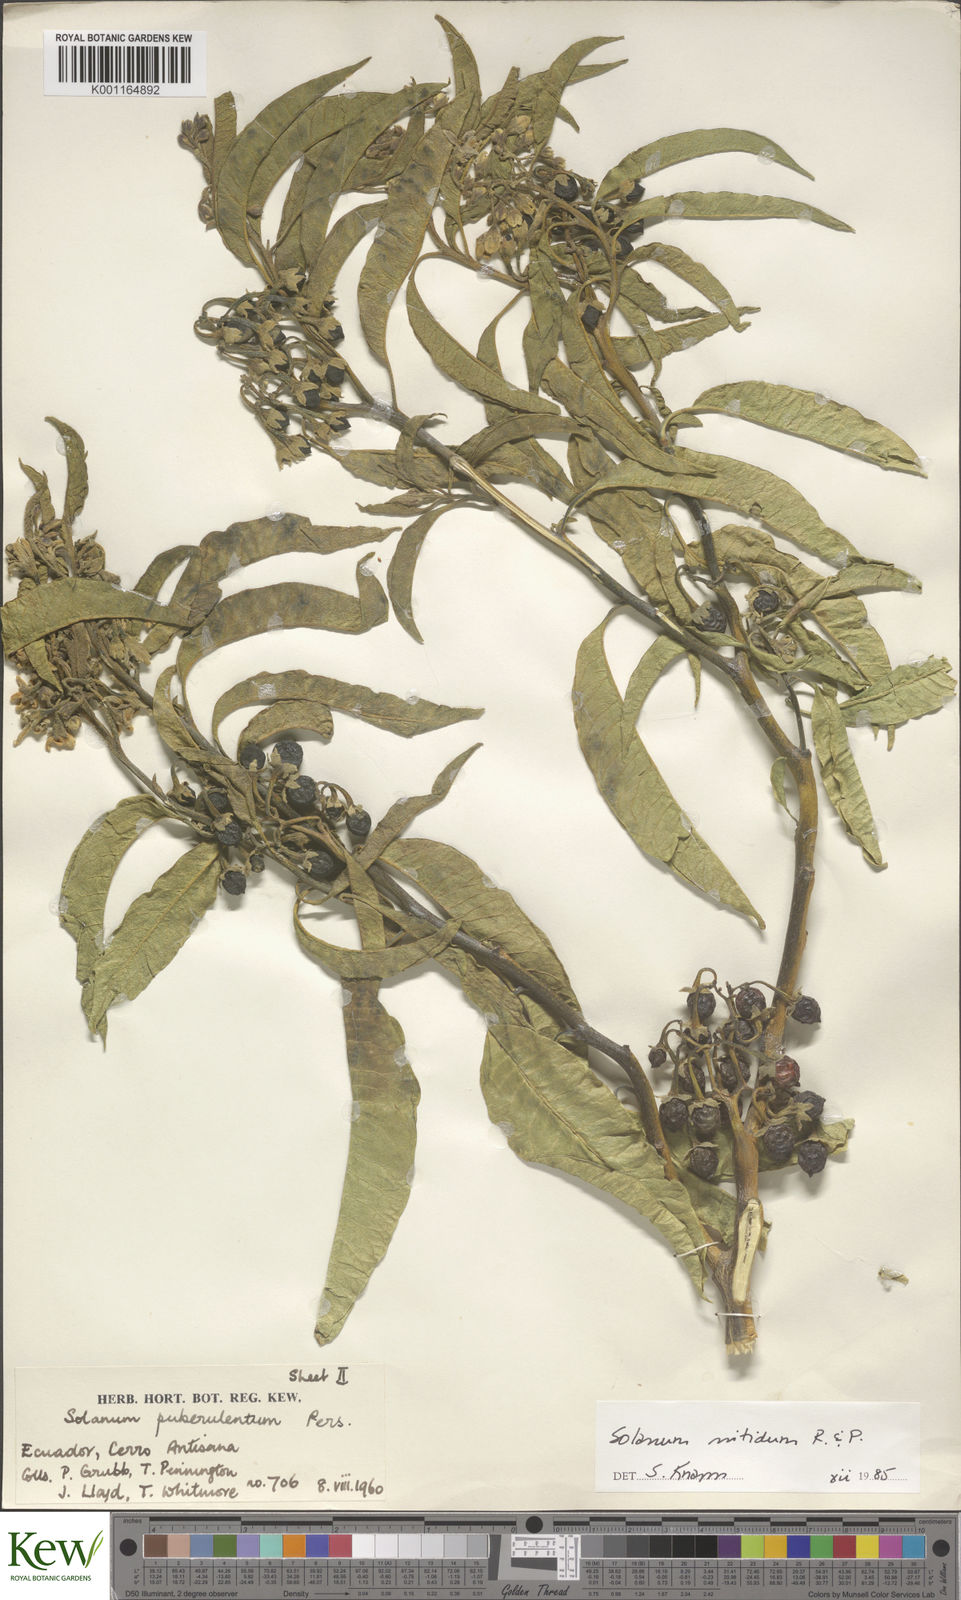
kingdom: Plantae
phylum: Tracheophyta
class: Magnoliopsida
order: Solanales
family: Solanaceae
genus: Solanum
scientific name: Solanum nitidum
